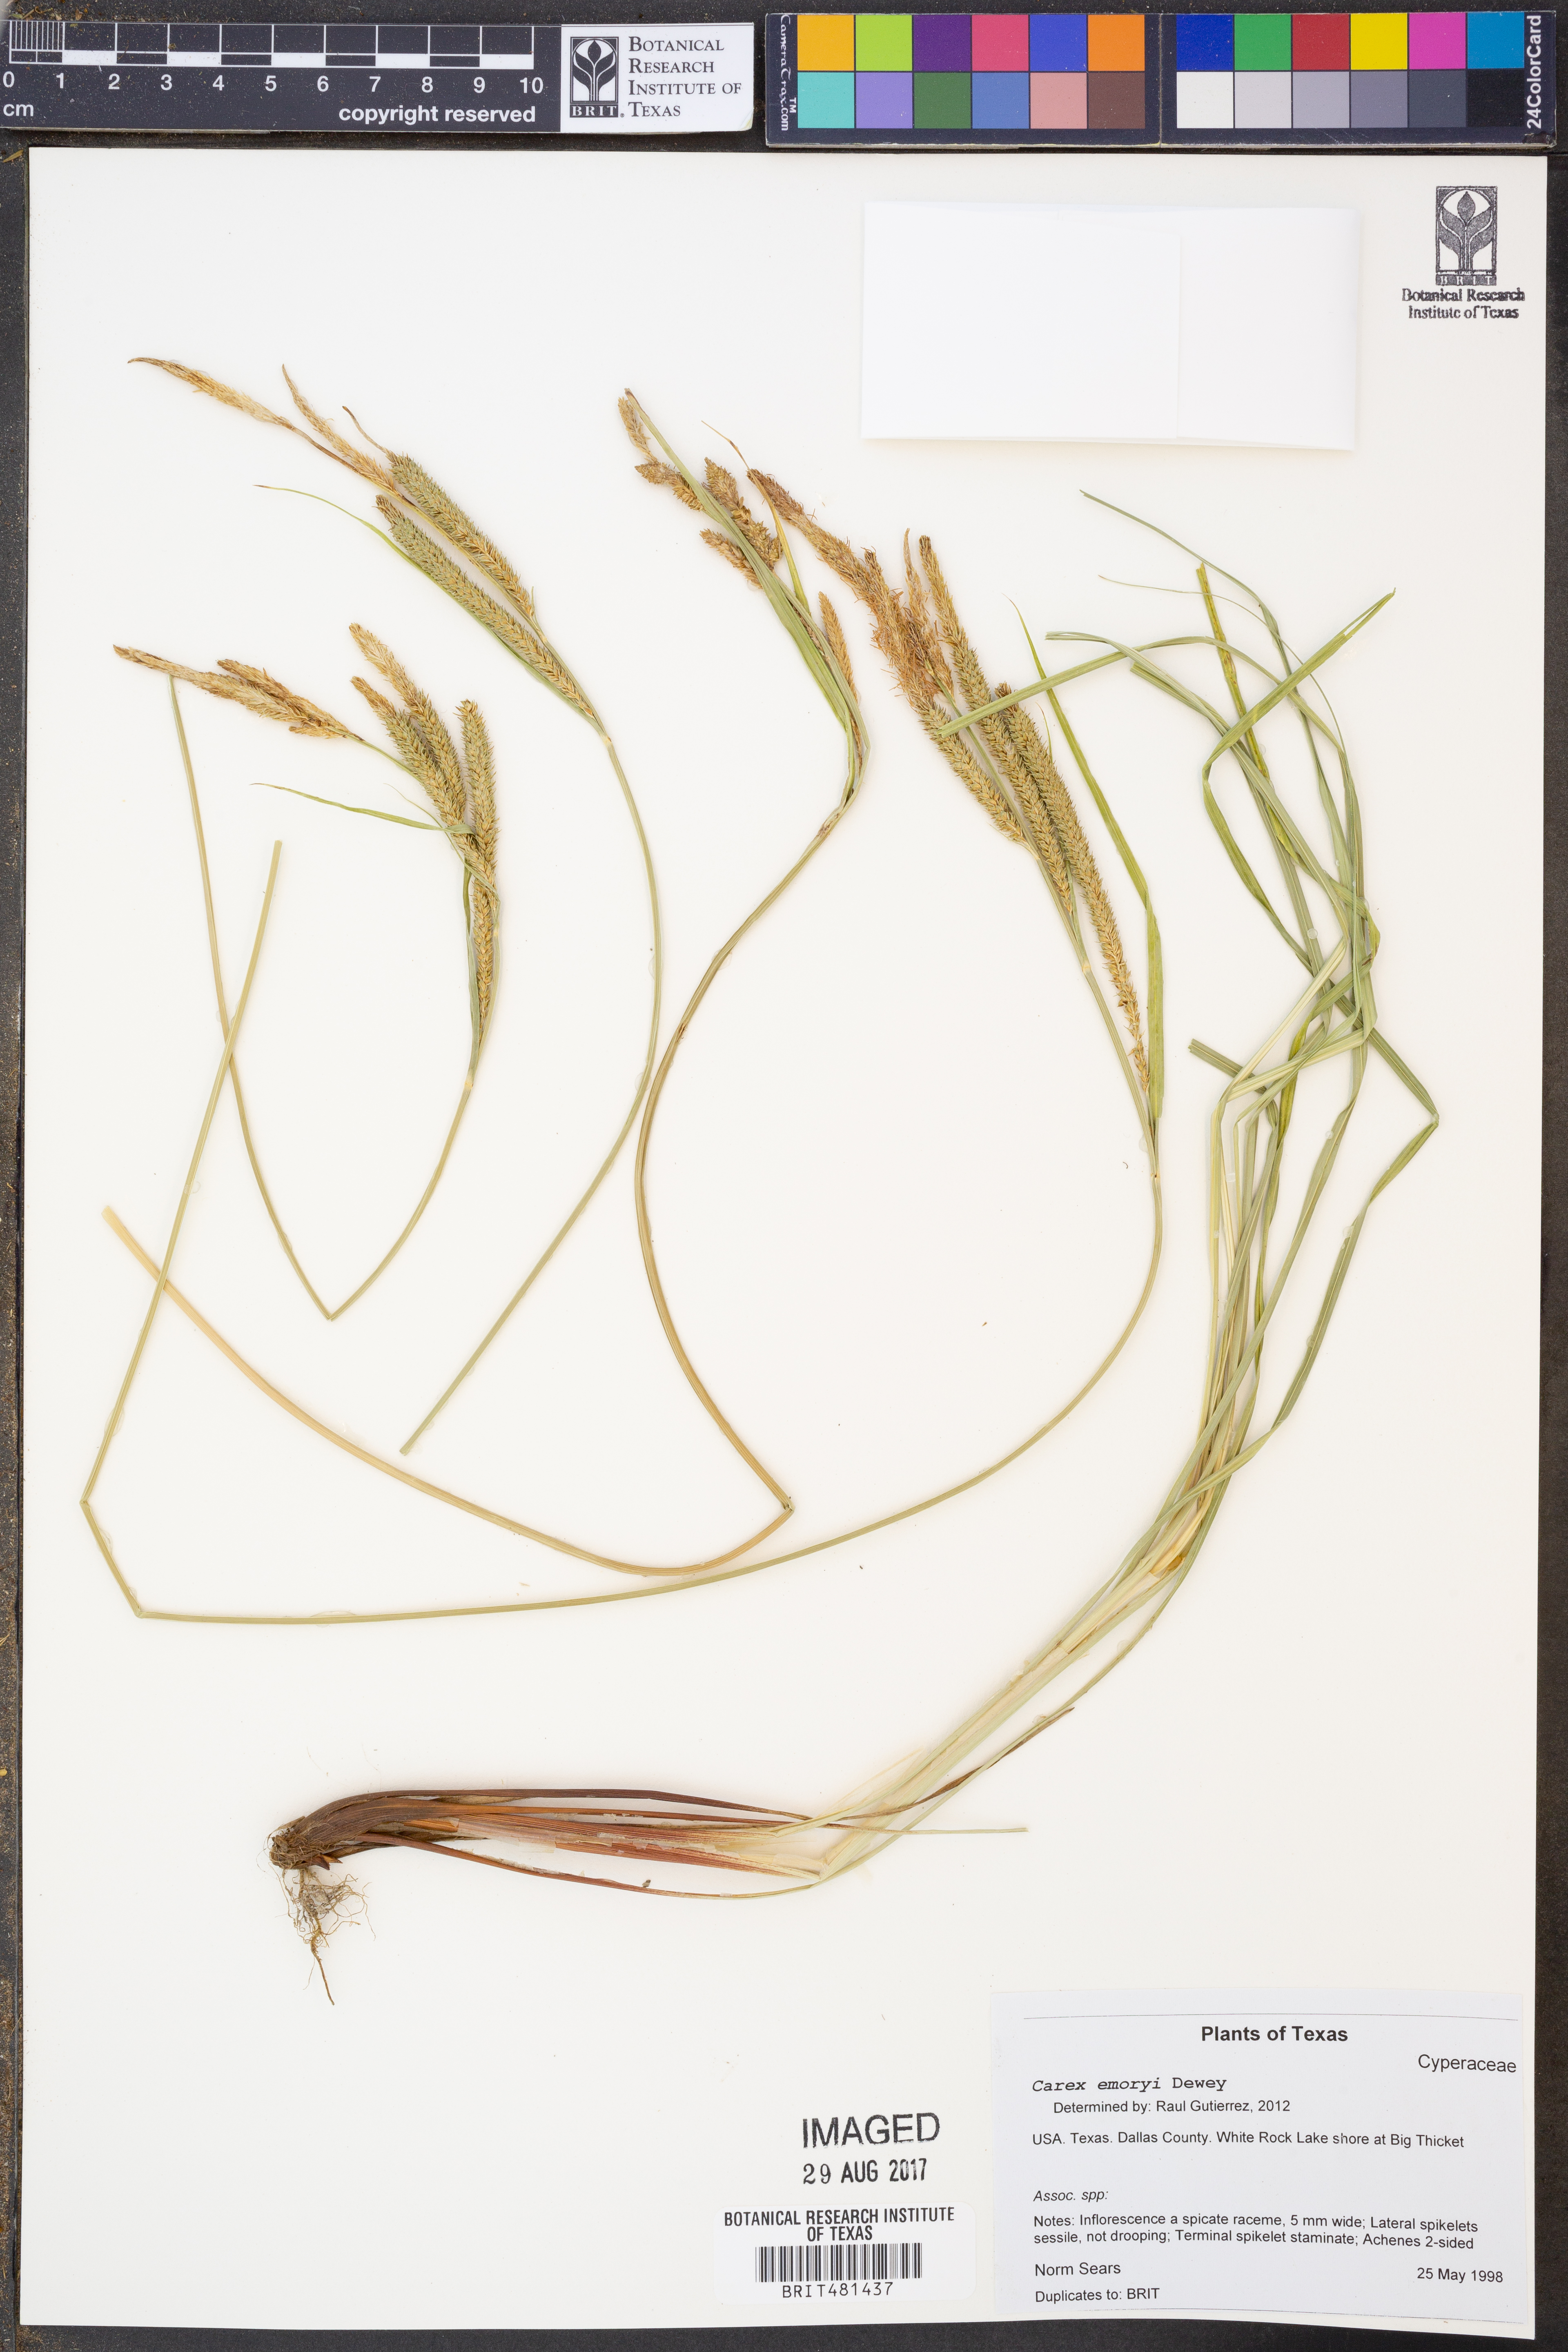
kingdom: Plantae
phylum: Tracheophyta
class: Liliopsida
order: Poales
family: Cyperaceae
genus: Carex
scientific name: Carex emoryi
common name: Emory's sedge
